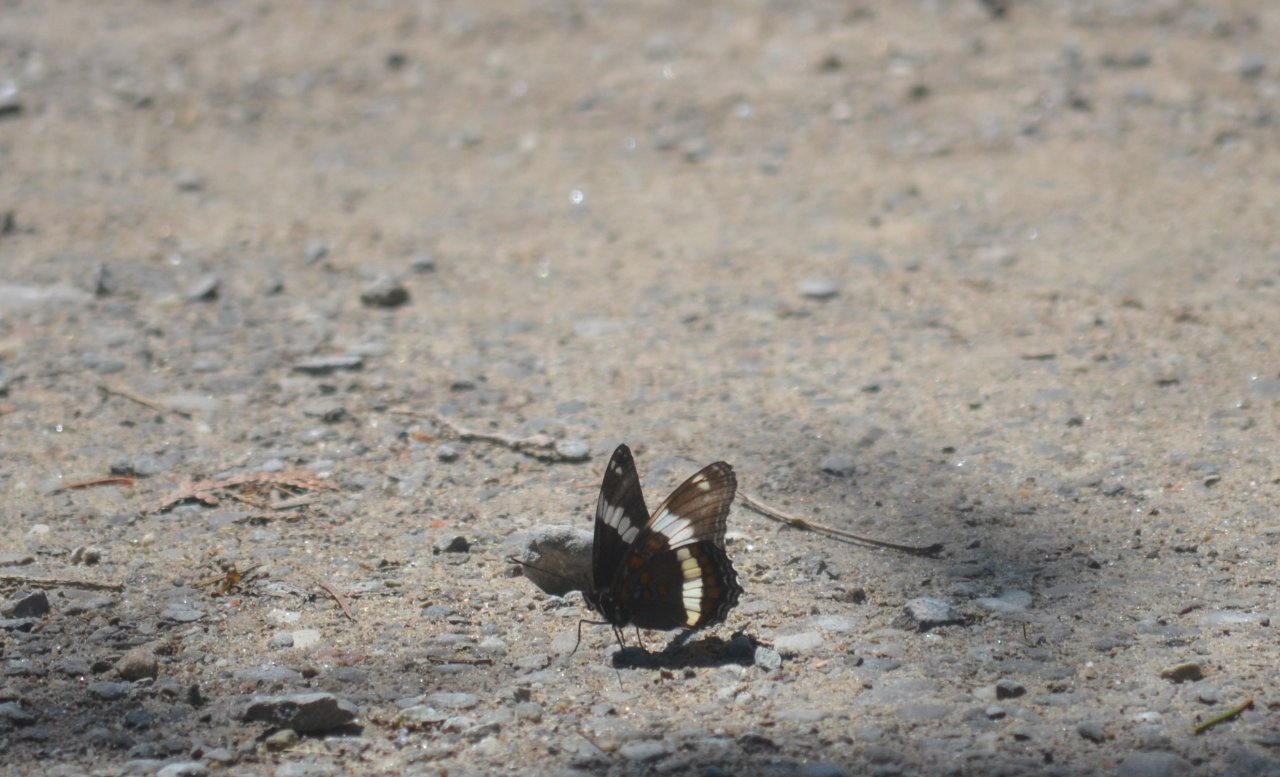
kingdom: Animalia
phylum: Arthropoda
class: Insecta
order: Lepidoptera
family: Nymphalidae
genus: Limenitis
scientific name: Limenitis arthemis
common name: Red-spotted Admiral
